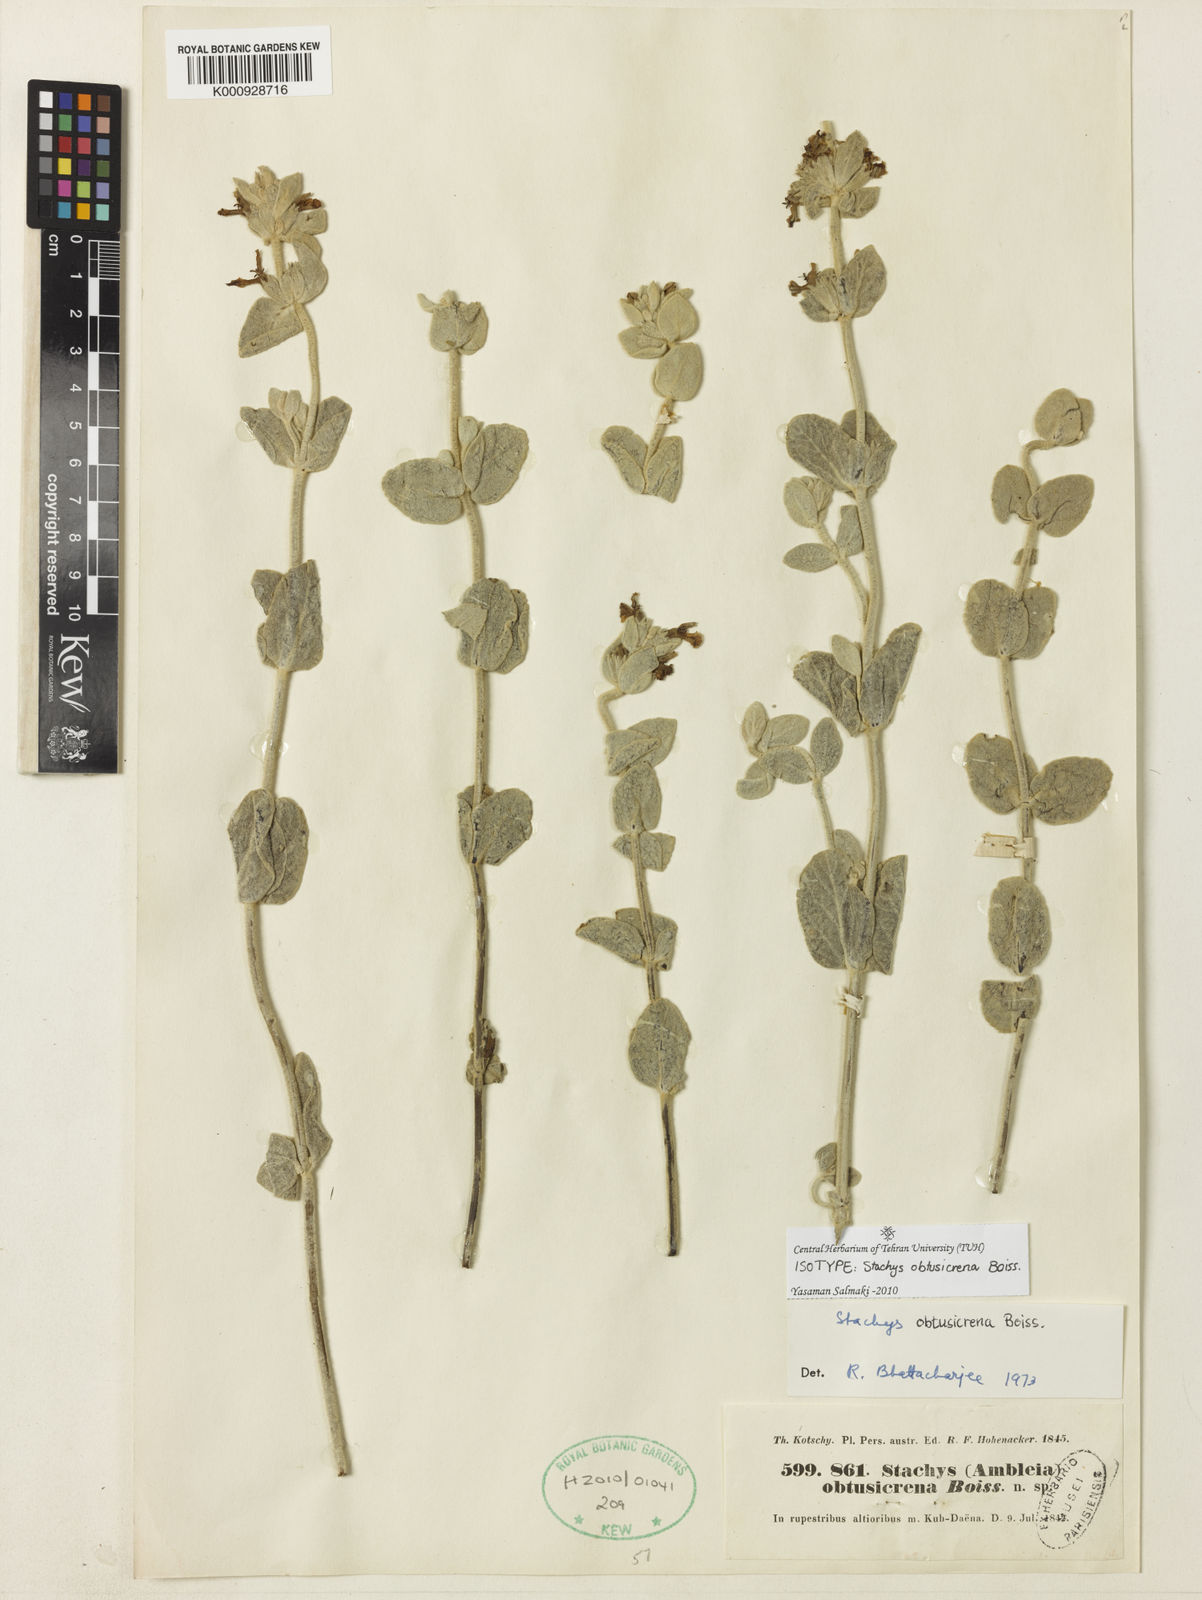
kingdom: Plantae
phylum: Tracheophyta
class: Magnoliopsida
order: Lamiales
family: Lamiaceae
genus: Stachys
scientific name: Stachys obtusicrena
